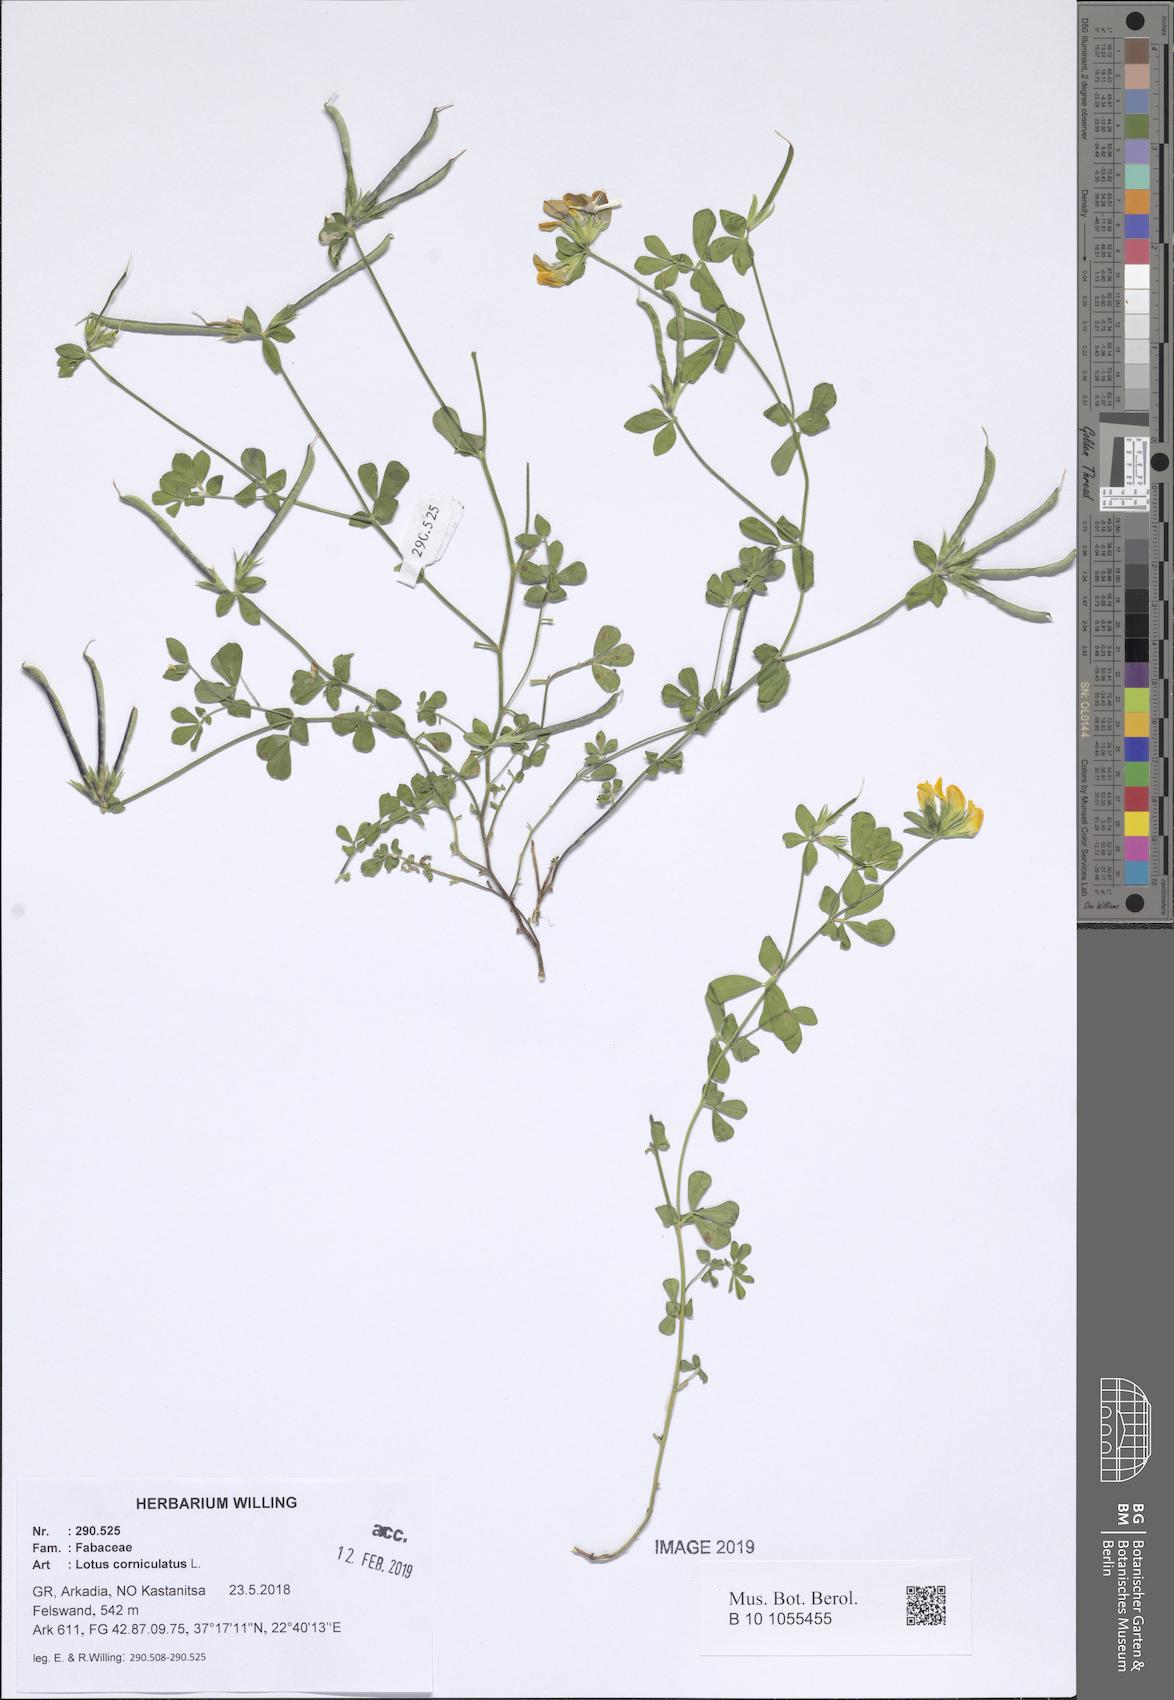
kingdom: Plantae
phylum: Tracheophyta
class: Magnoliopsida
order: Fabales
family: Fabaceae
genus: Lotus
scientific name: Lotus corniculatus
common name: Common bird's-foot-trefoil
